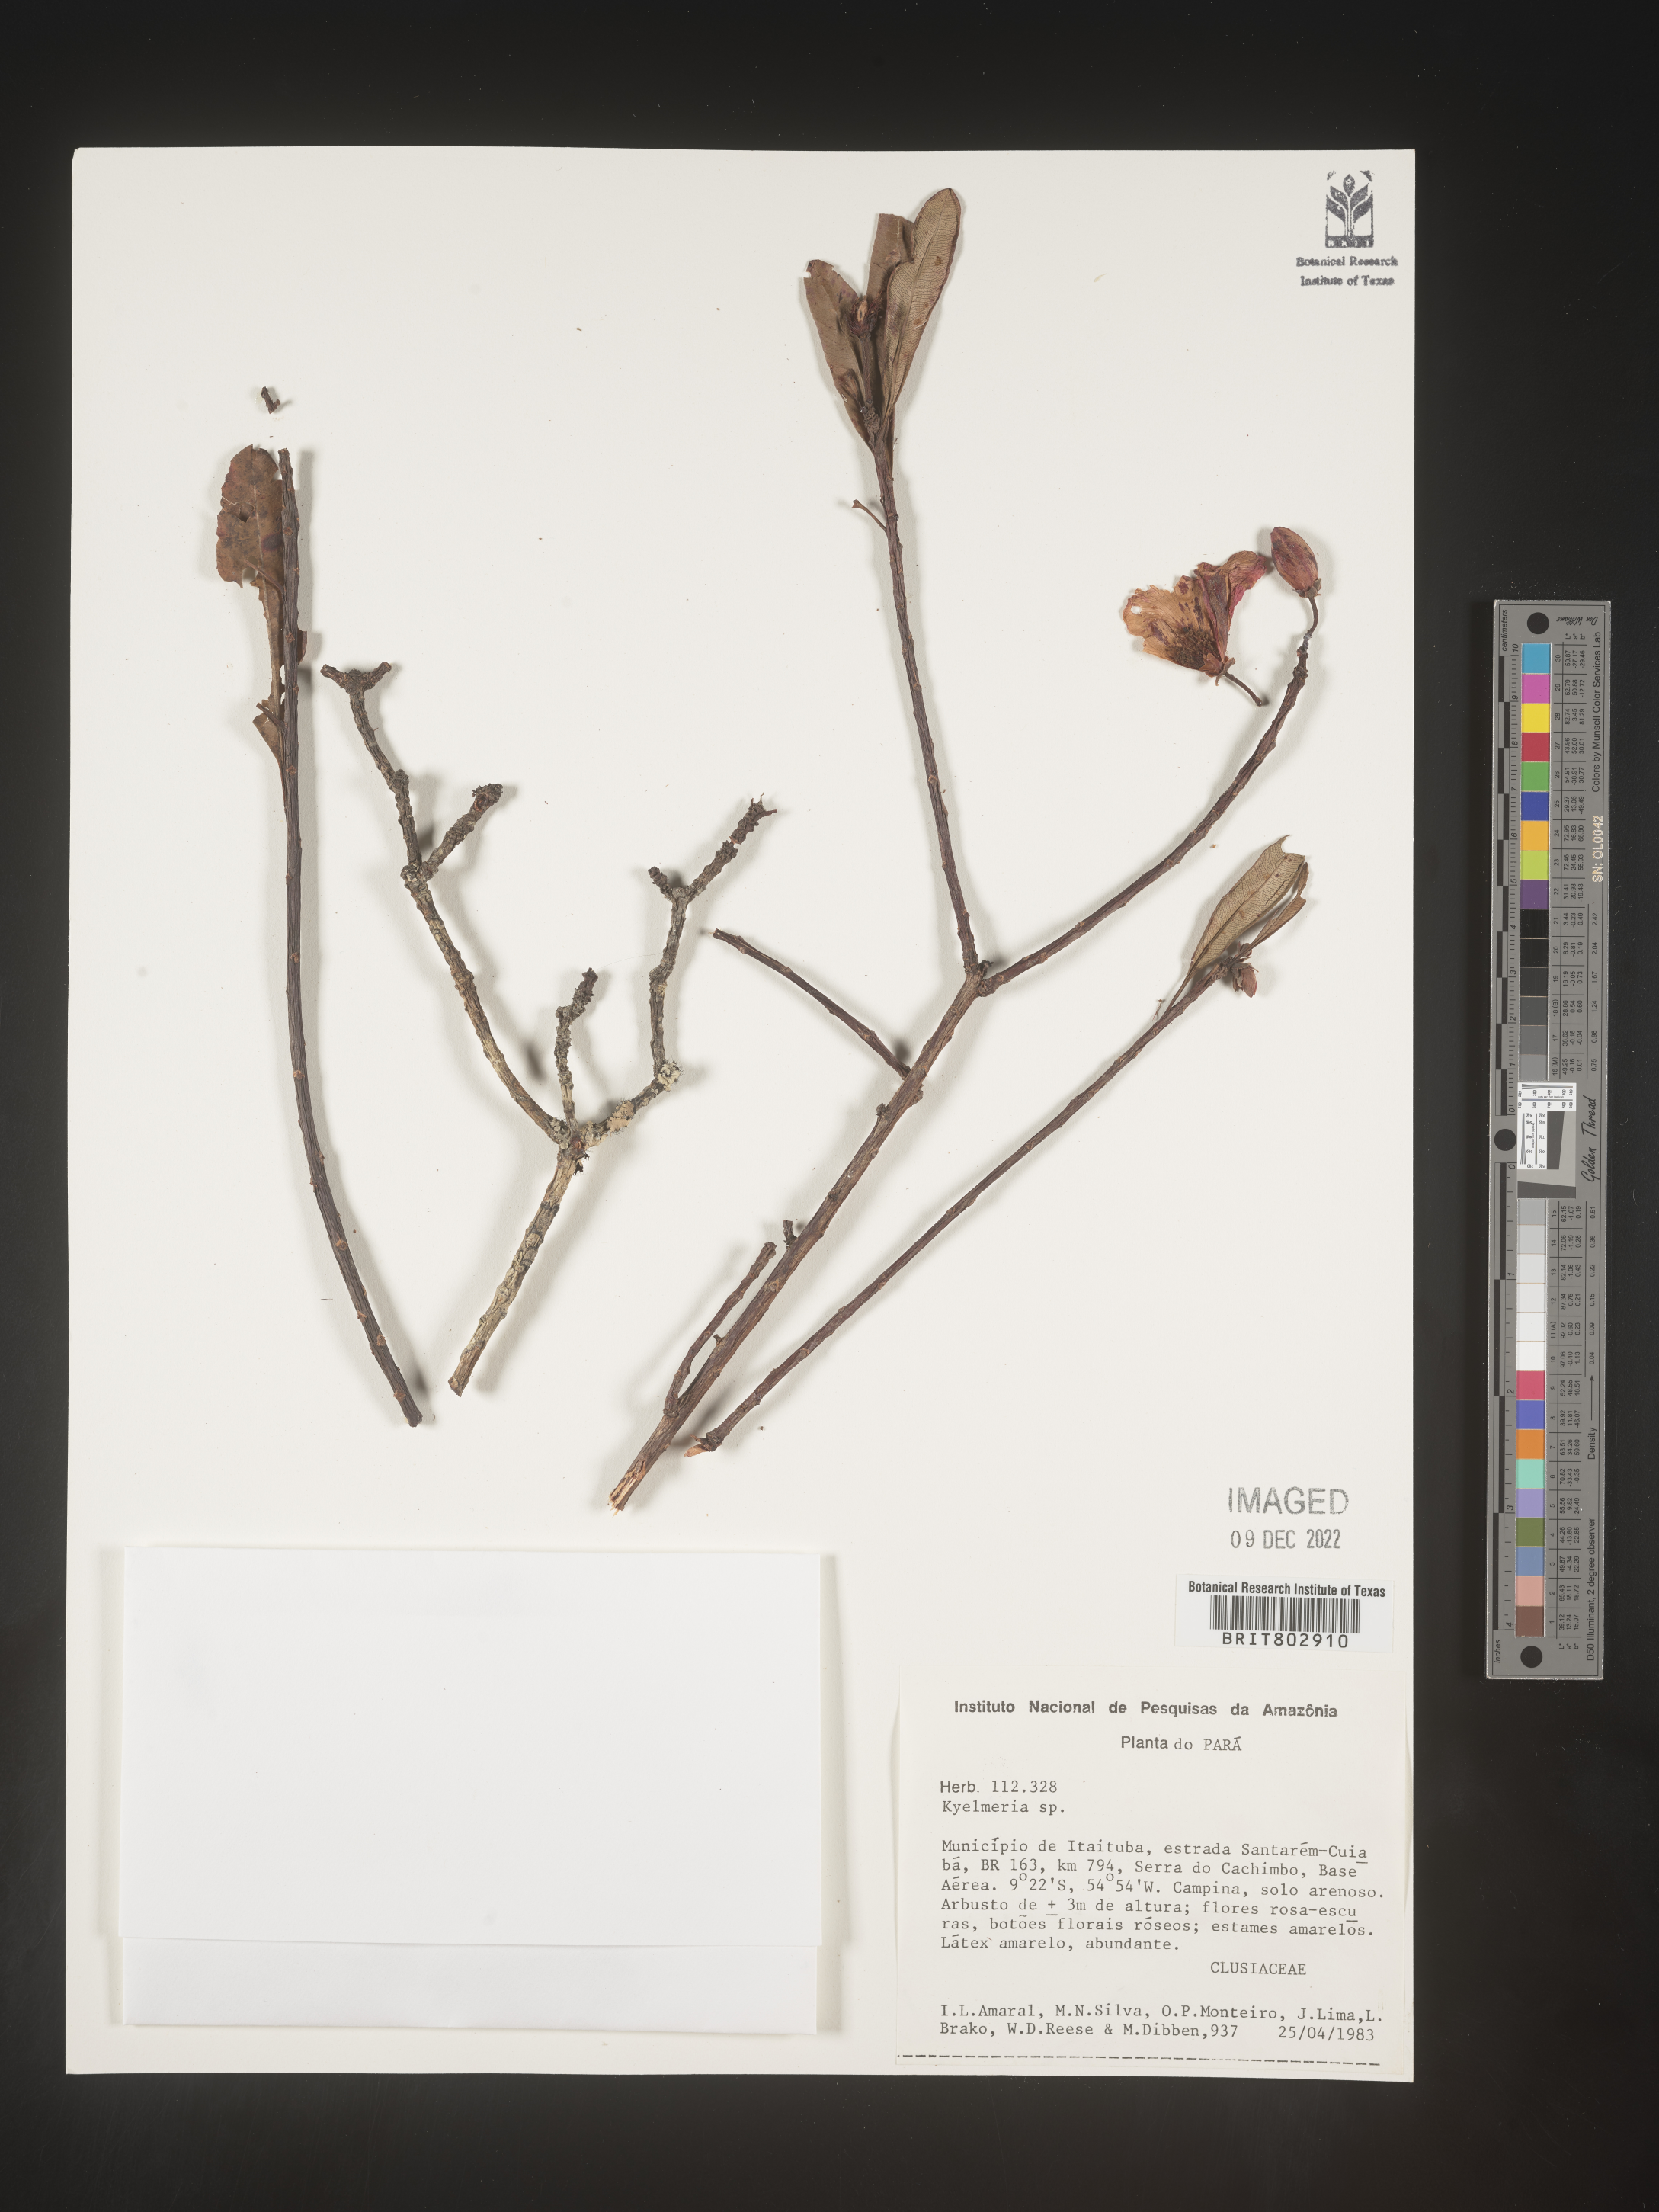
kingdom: Plantae
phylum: Tracheophyta
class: Magnoliopsida
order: Malpighiales
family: Calophyllaceae
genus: Kielmeyera
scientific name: Kielmeyera
